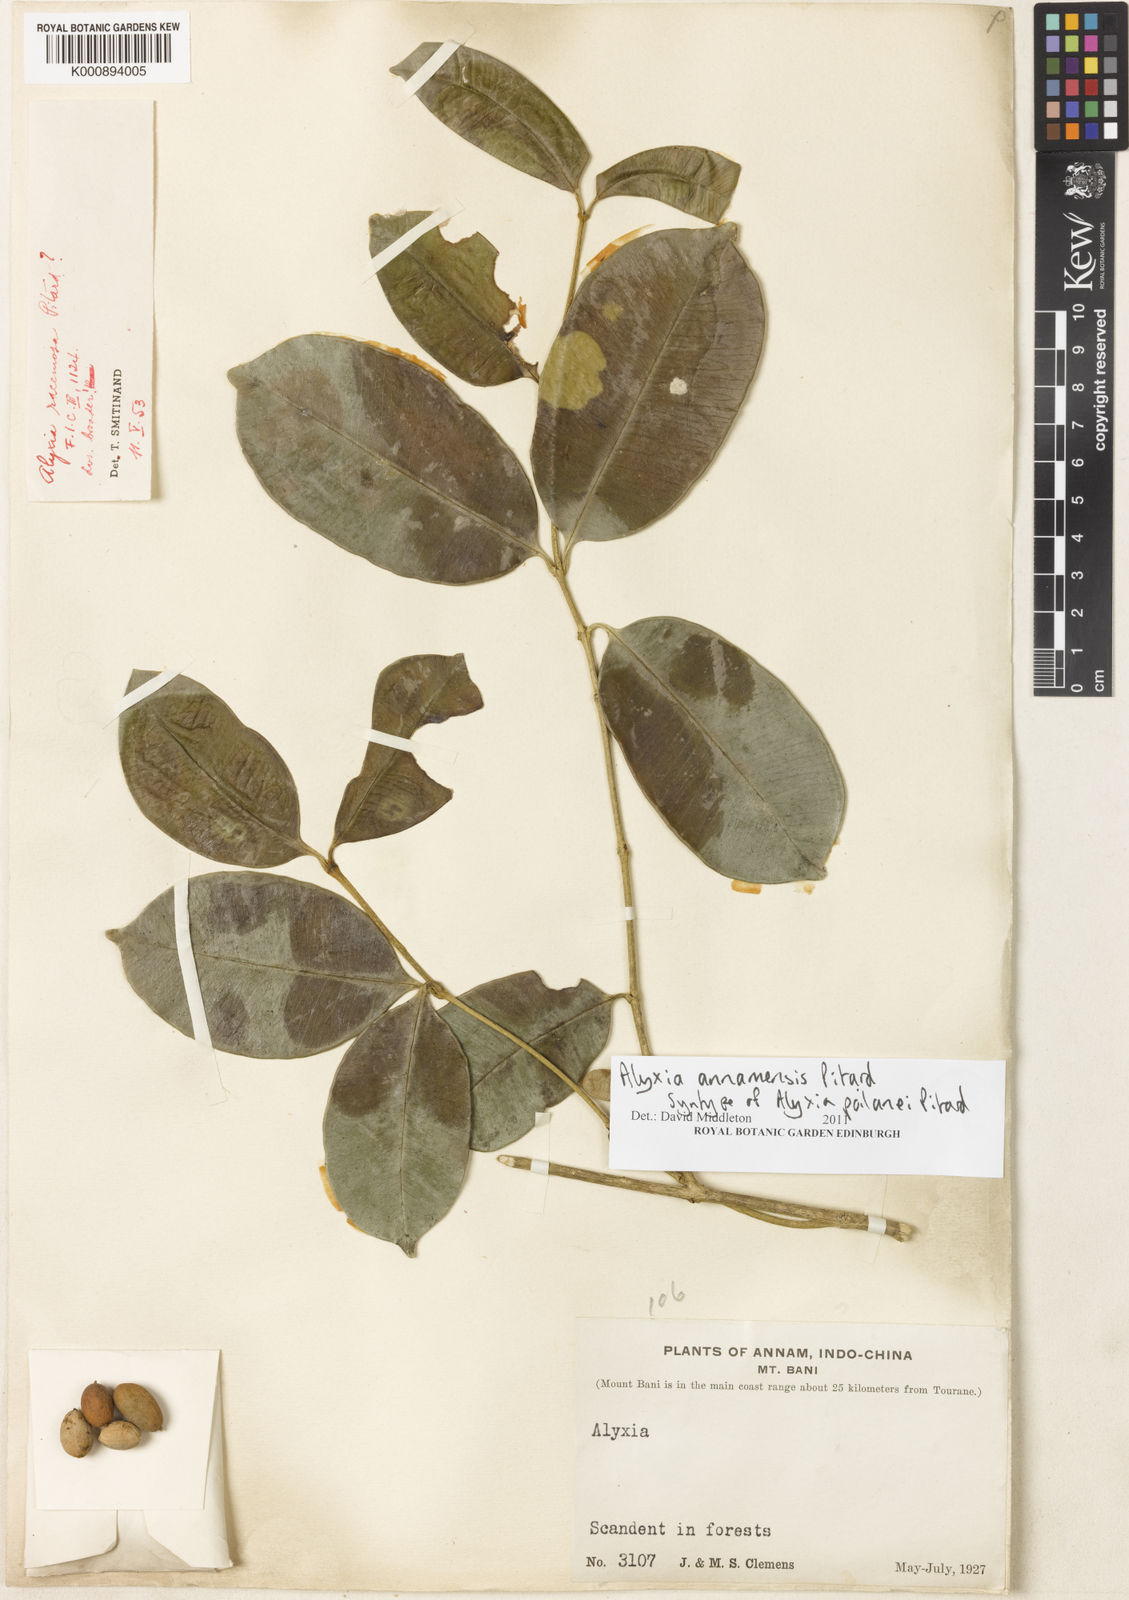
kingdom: Plantae
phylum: Tracheophyta
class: Magnoliopsida
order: Gentianales
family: Apocynaceae
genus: Alyxia
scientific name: Alyxia annamensis
